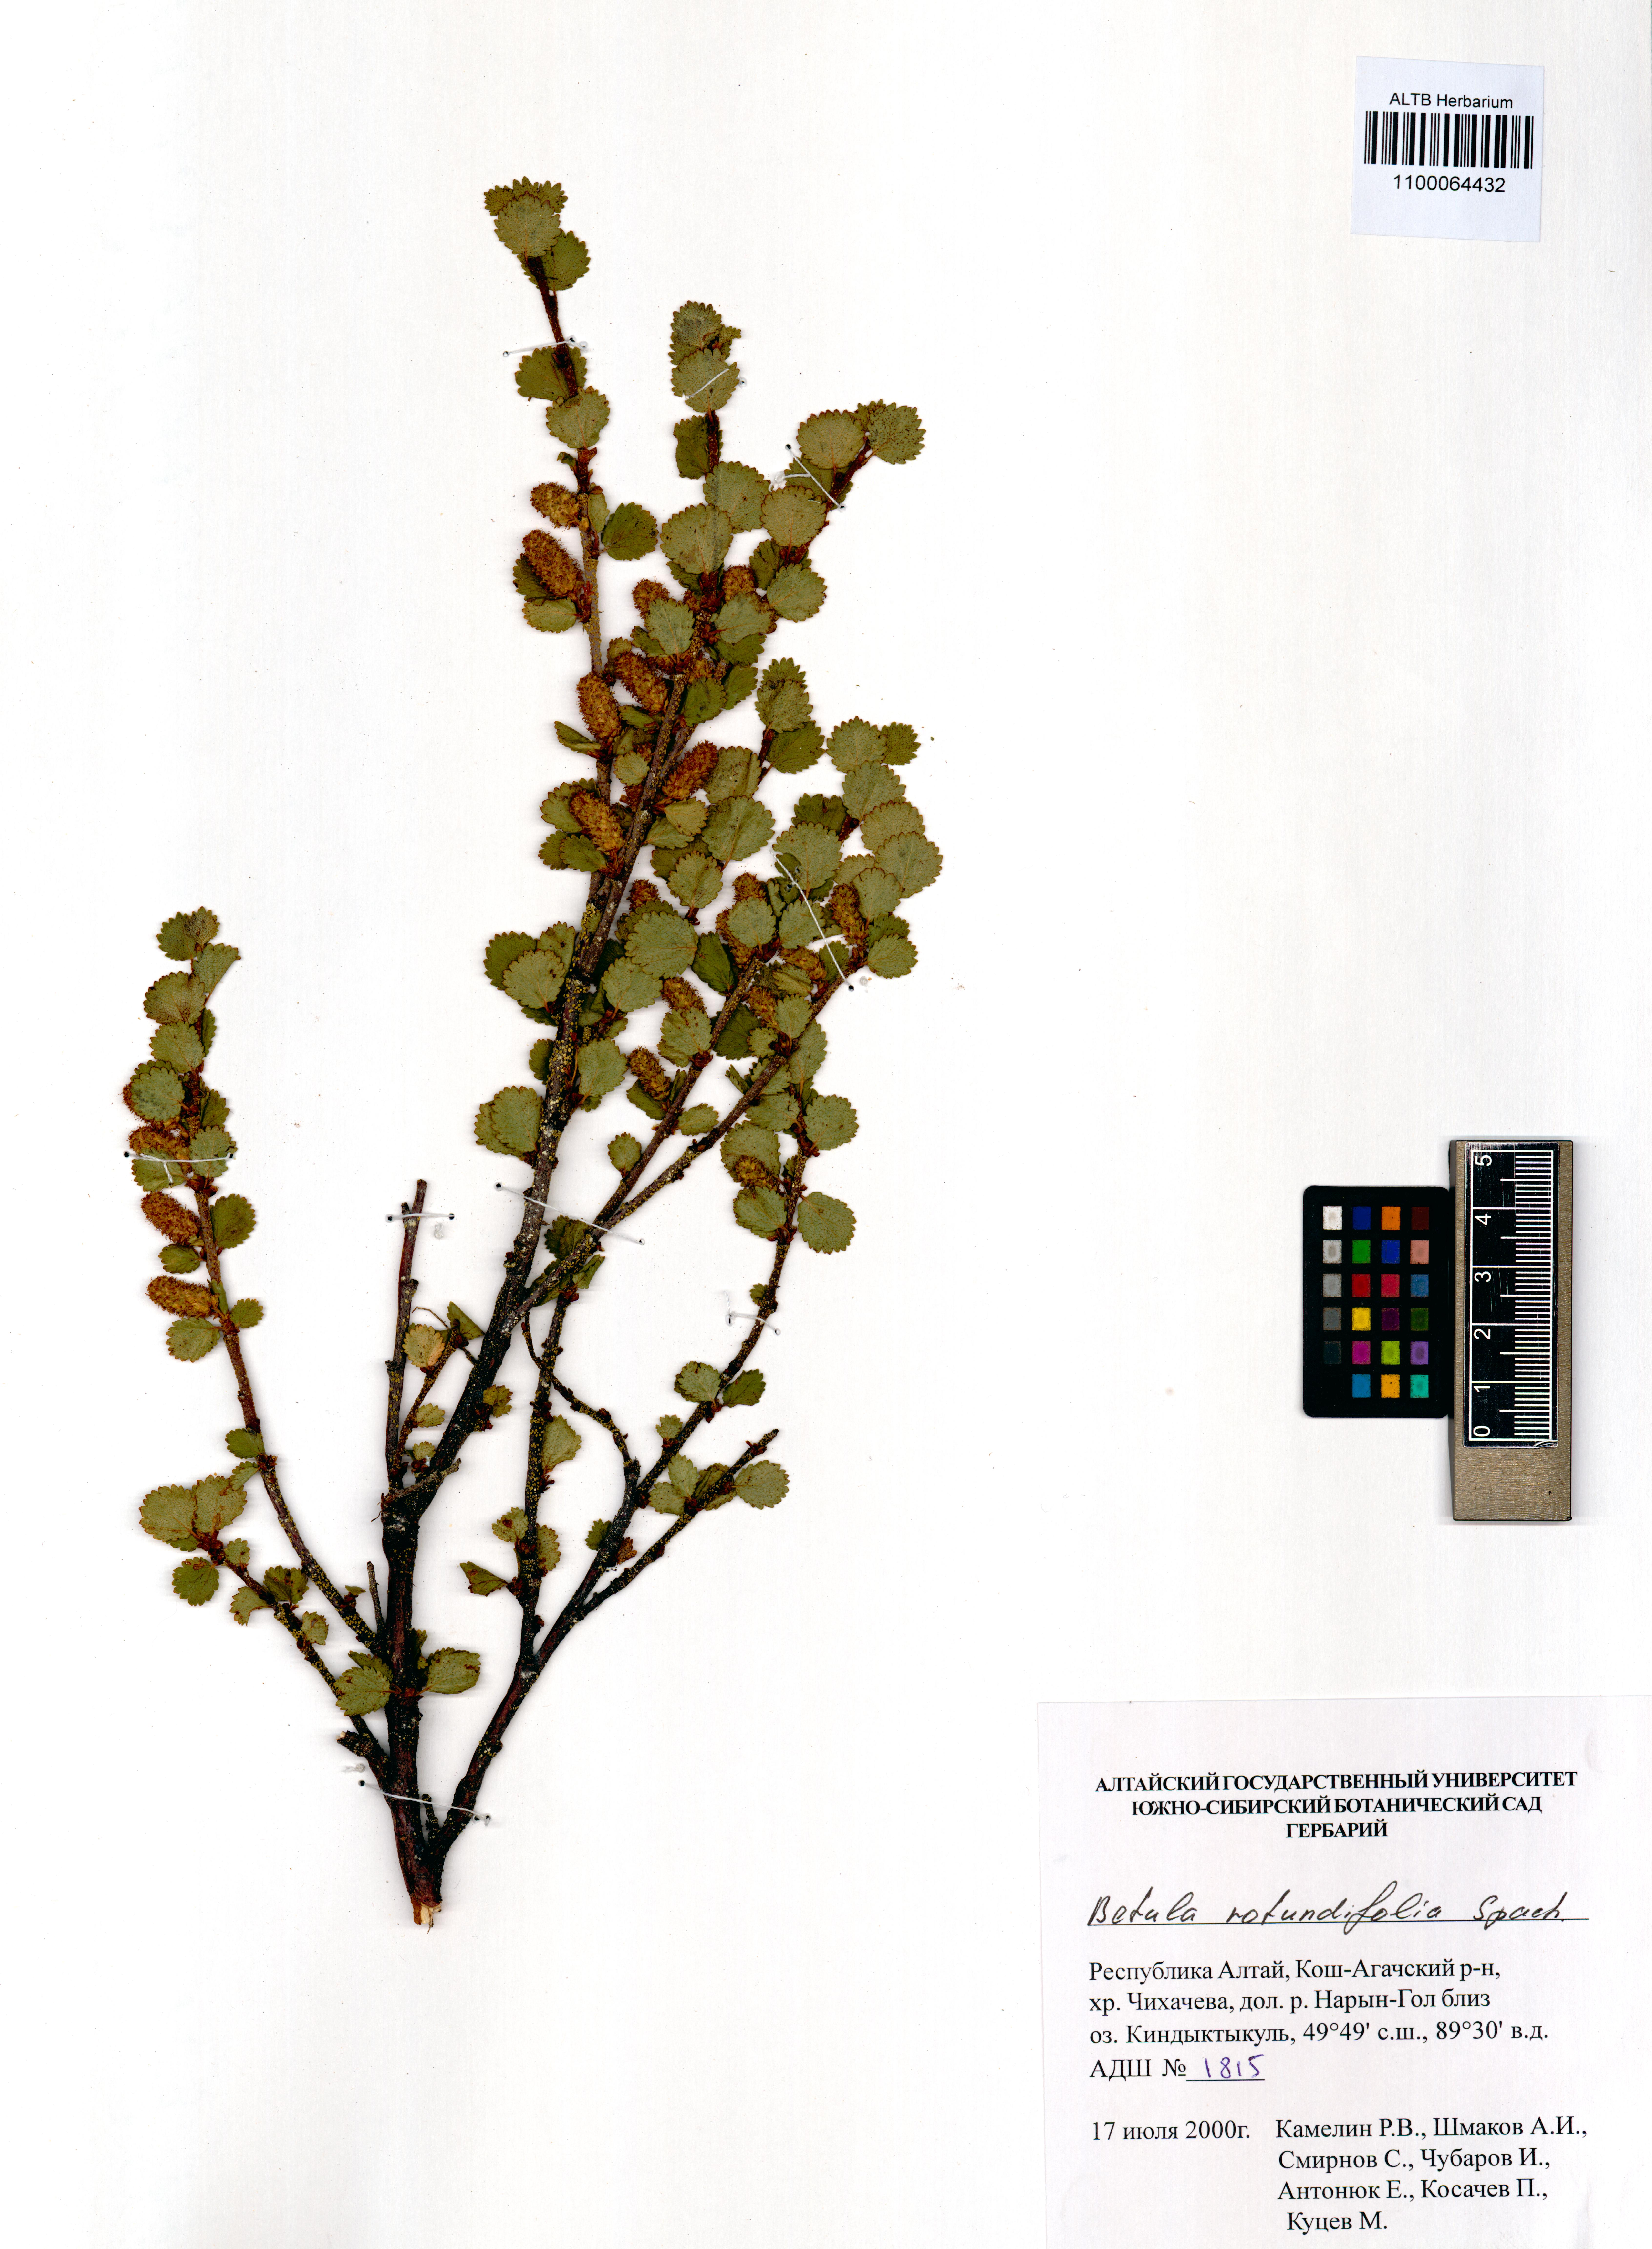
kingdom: Plantae
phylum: Tracheophyta
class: Magnoliopsida
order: Fagales
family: Betulaceae
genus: Betula
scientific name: Betula glandulosa
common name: Dwarf birch
